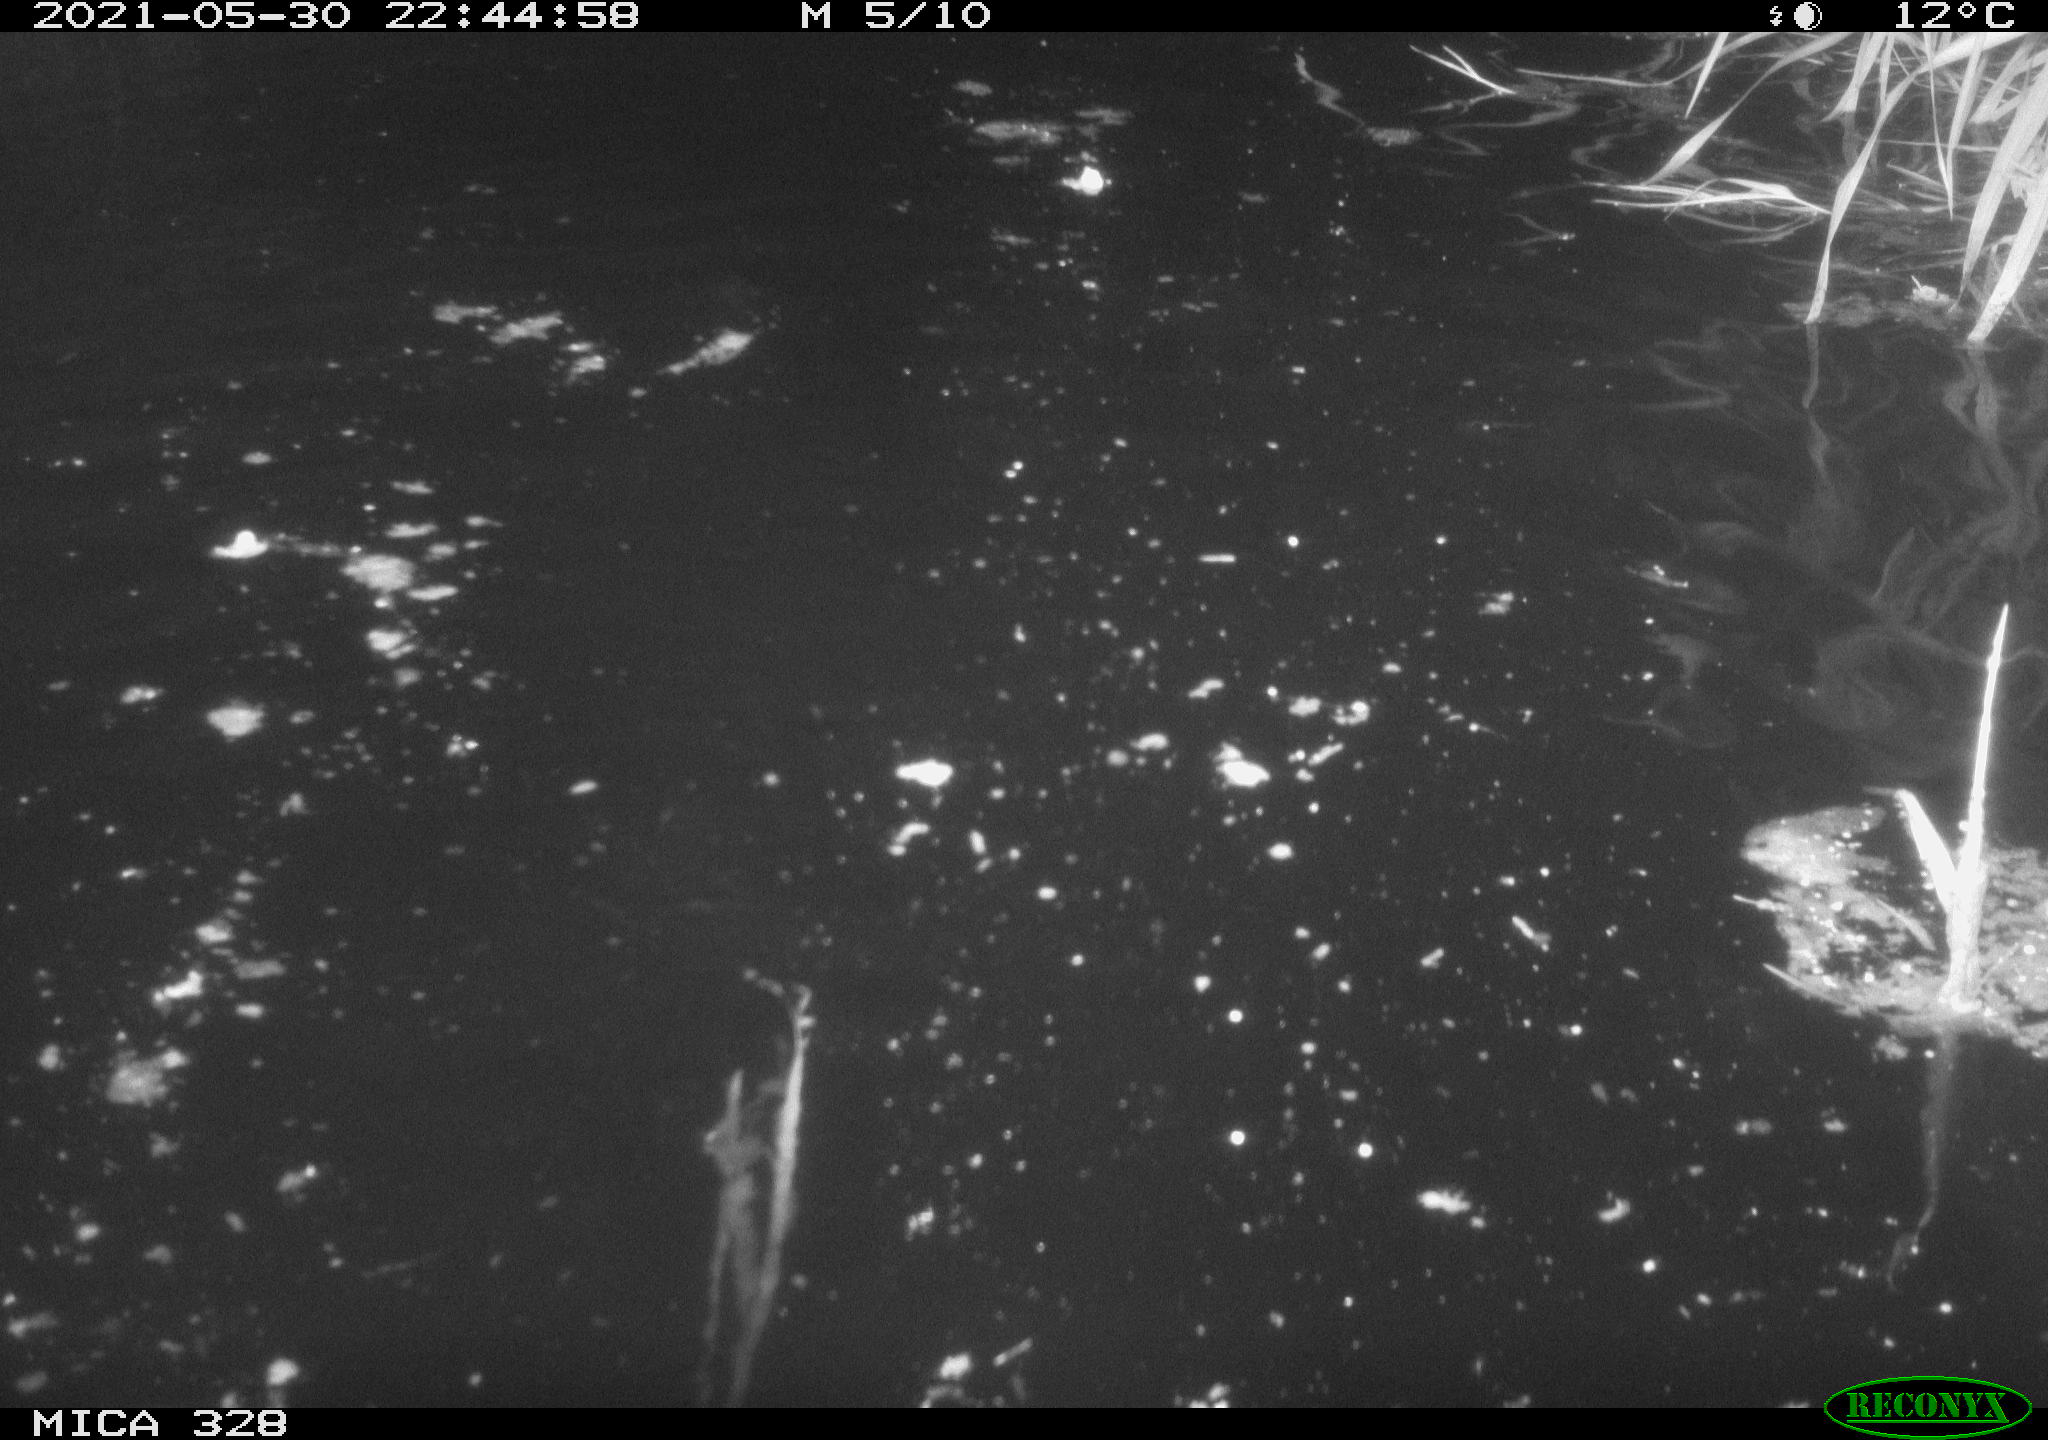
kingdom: Animalia
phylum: Chordata
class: Mammalia
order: Rodentia
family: Cricetidae
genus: Ondatra
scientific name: Ondatra zibethicus
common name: Muskrat
